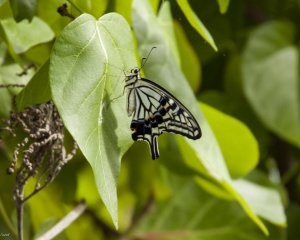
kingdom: Animalia
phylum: Arthropoda
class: Insecta
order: Lepidoptera
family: Papilionidae
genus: Papilio
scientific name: Papilio xuthus
